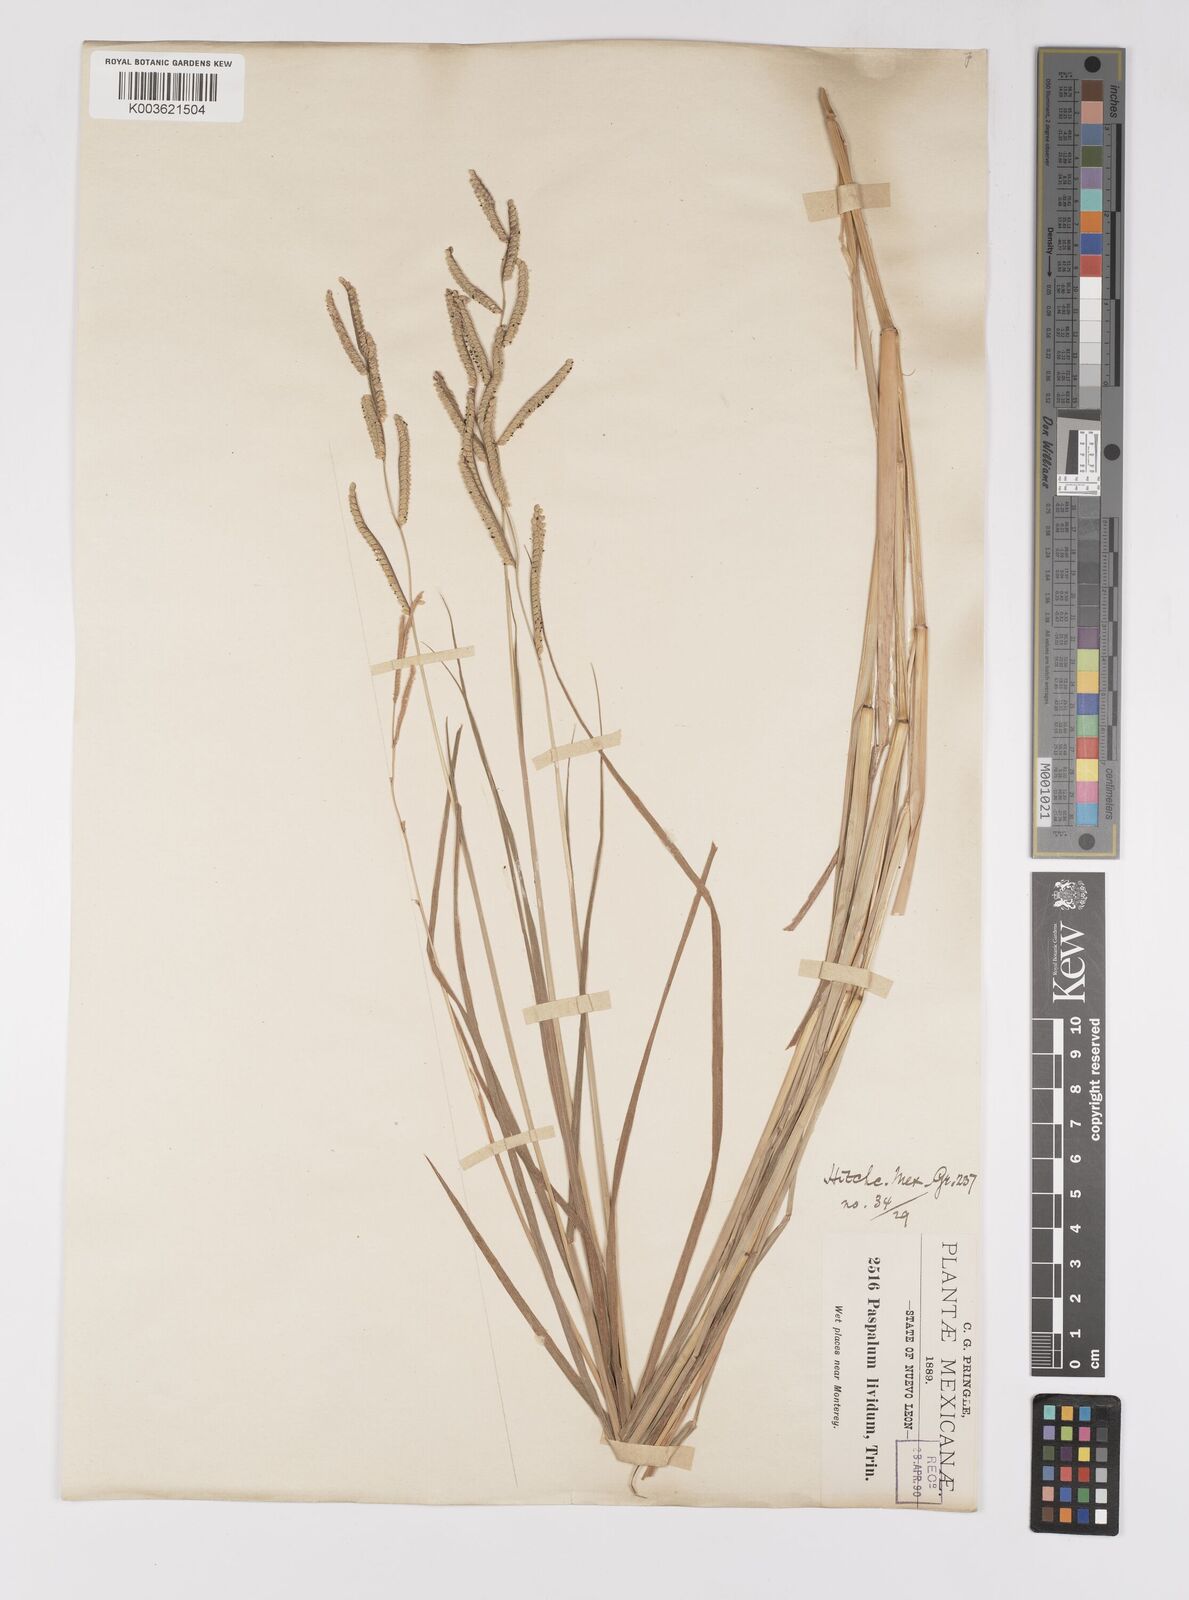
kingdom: Plantae
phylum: Tracheophyta
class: Liliopsida
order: Poales
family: Poaceae
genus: Paspalum
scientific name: Paspalum denticulatum
